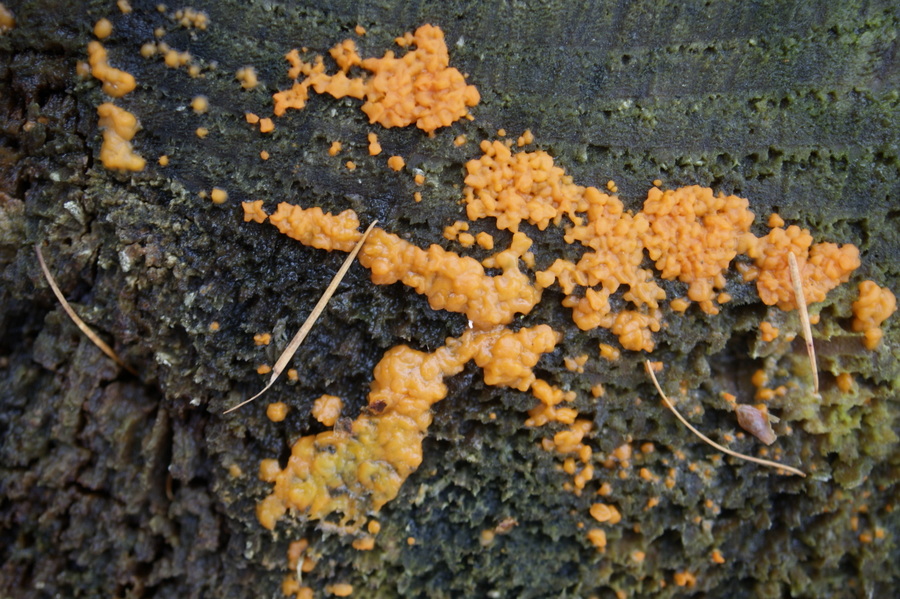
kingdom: Fungi
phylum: Basidiomycota
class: Dacrymycetes
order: Dacrymycetales
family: Dacrymycetaceae
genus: Dacrymyces
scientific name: Dacrymyces stillatus
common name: almindelig tåresvamp
